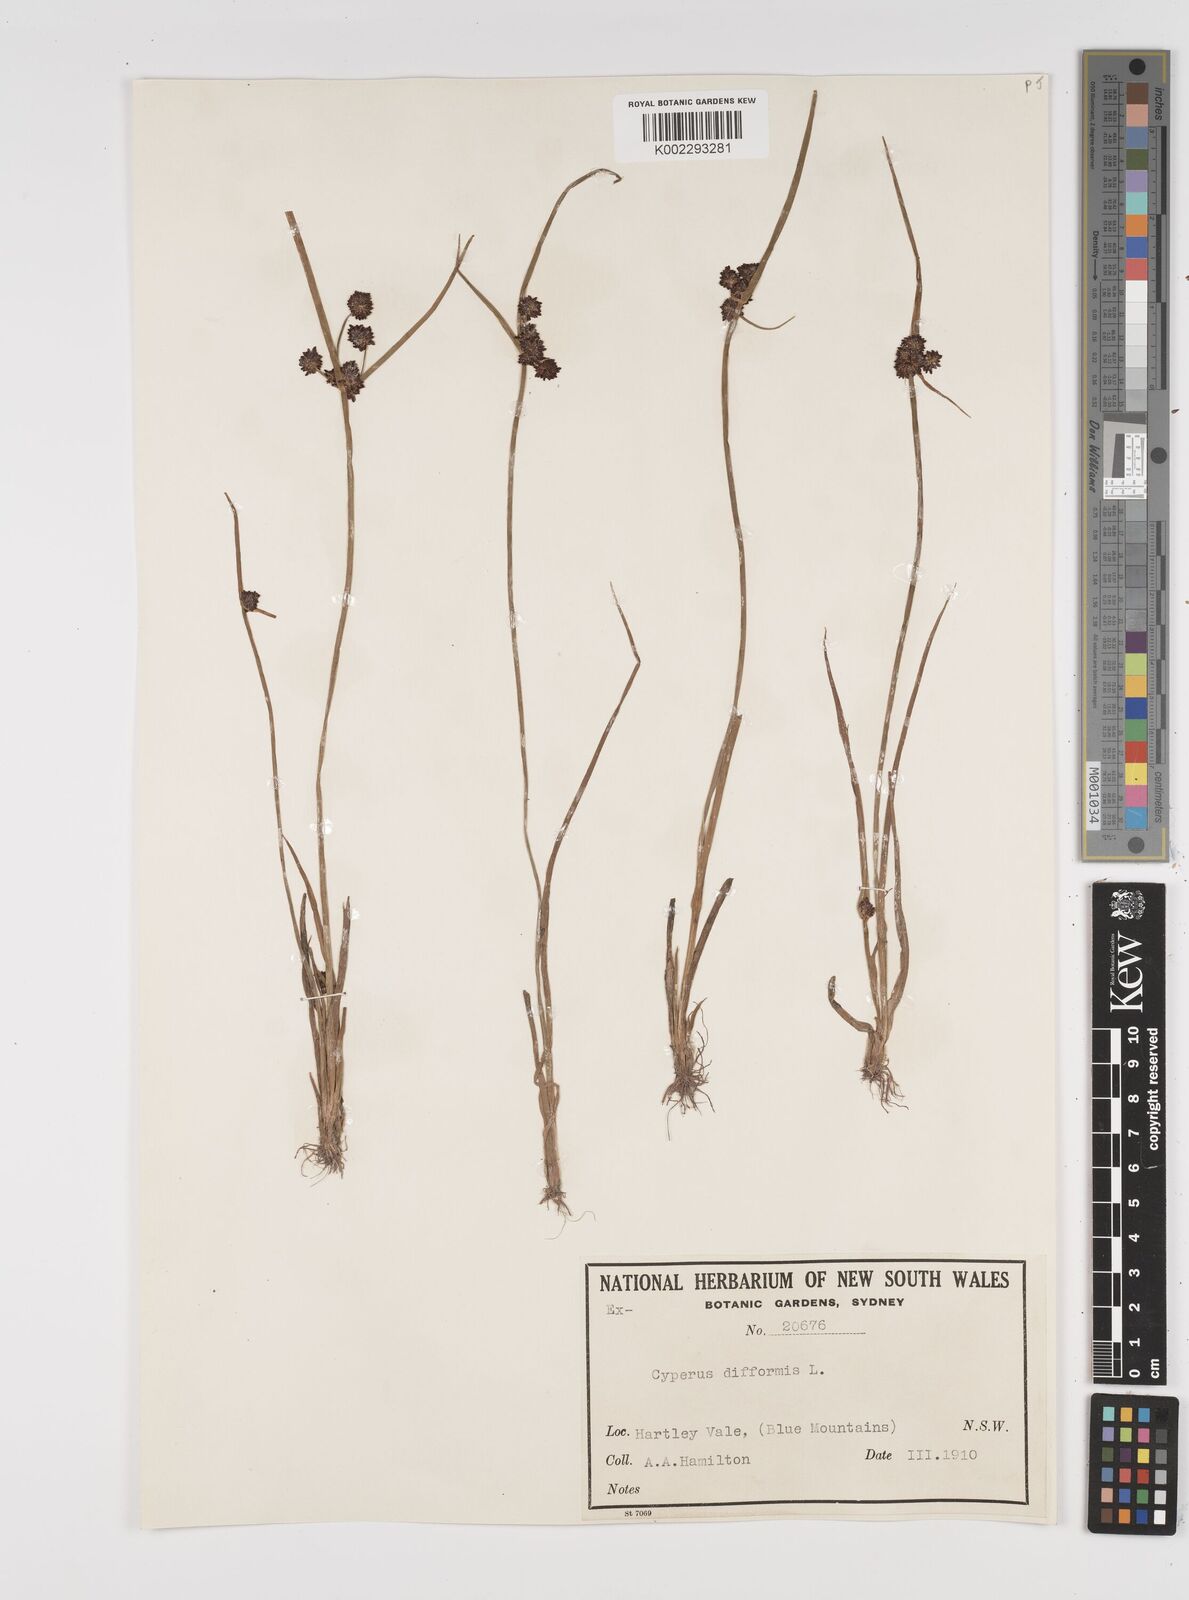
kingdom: Plantae
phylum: Tracheophyta
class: Liliopsida
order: Poales
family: Cyperaceae
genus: Cyperus
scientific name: Cyperus difformis
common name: Variable flatsedge
